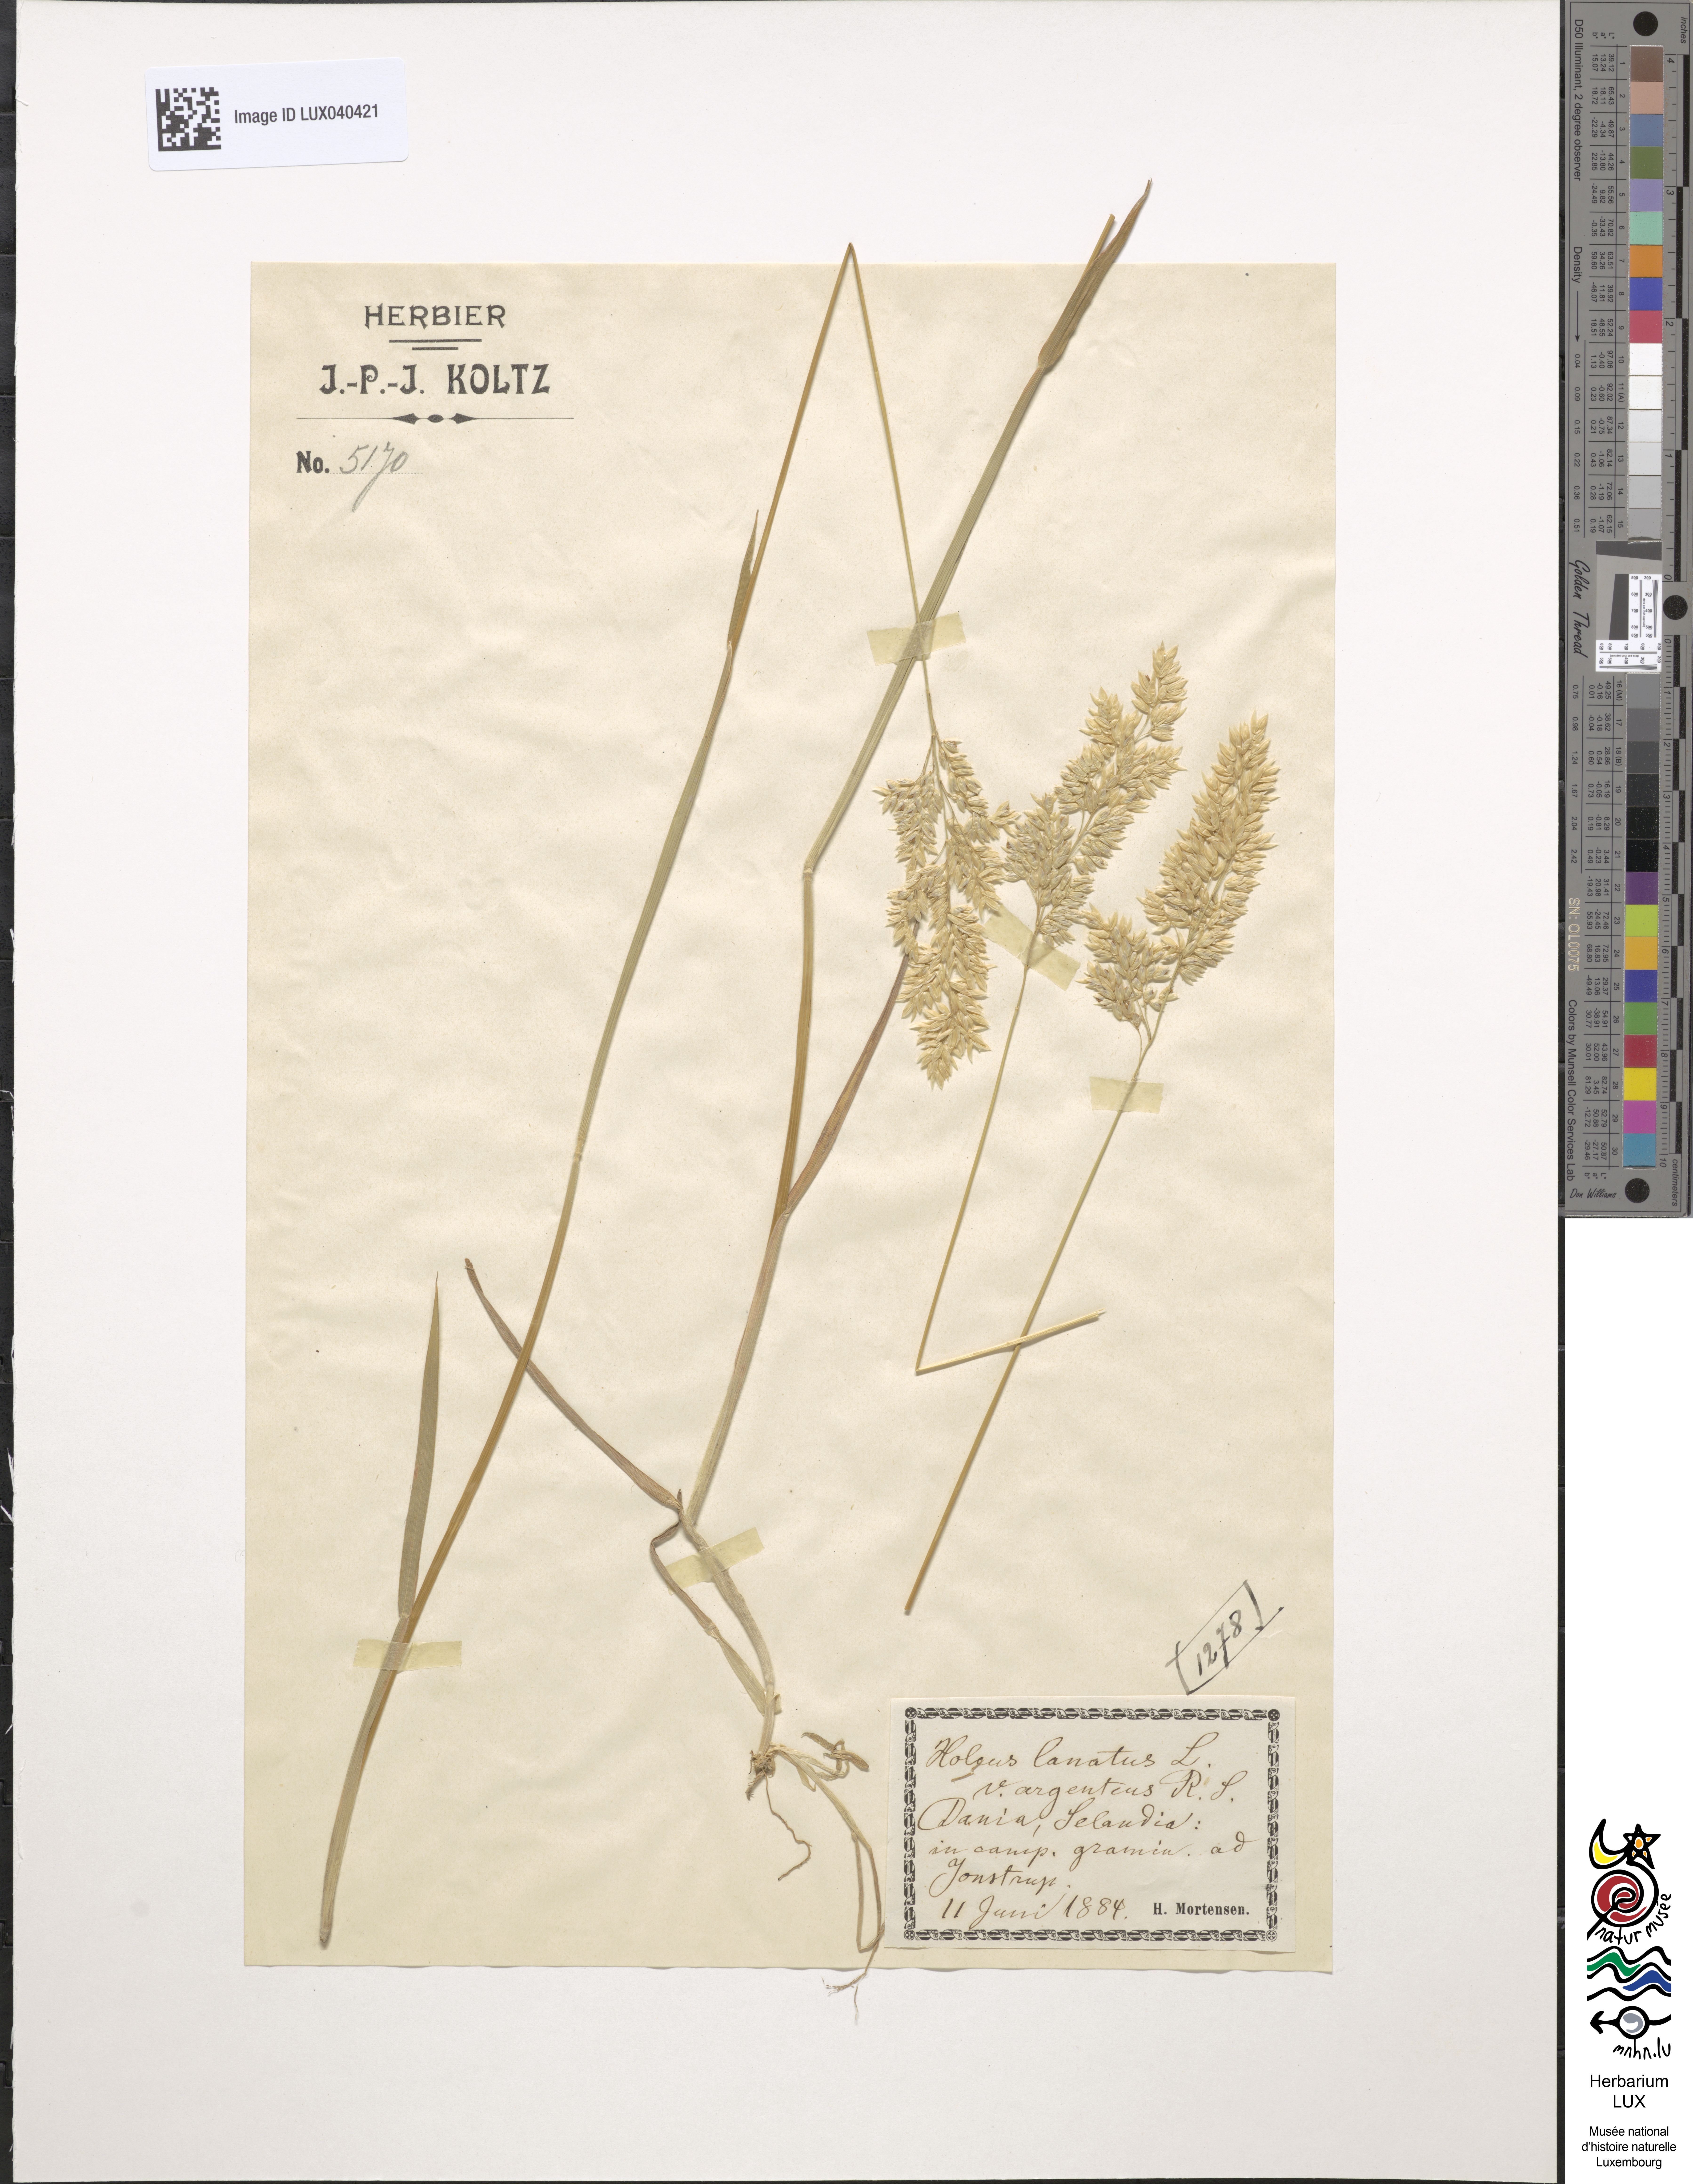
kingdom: Plantae
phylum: Tracheophyta
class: Liliopsida
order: Poales
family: Poaceae
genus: Holcus
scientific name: Holcus lanatus
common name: Yorkshire-fog
